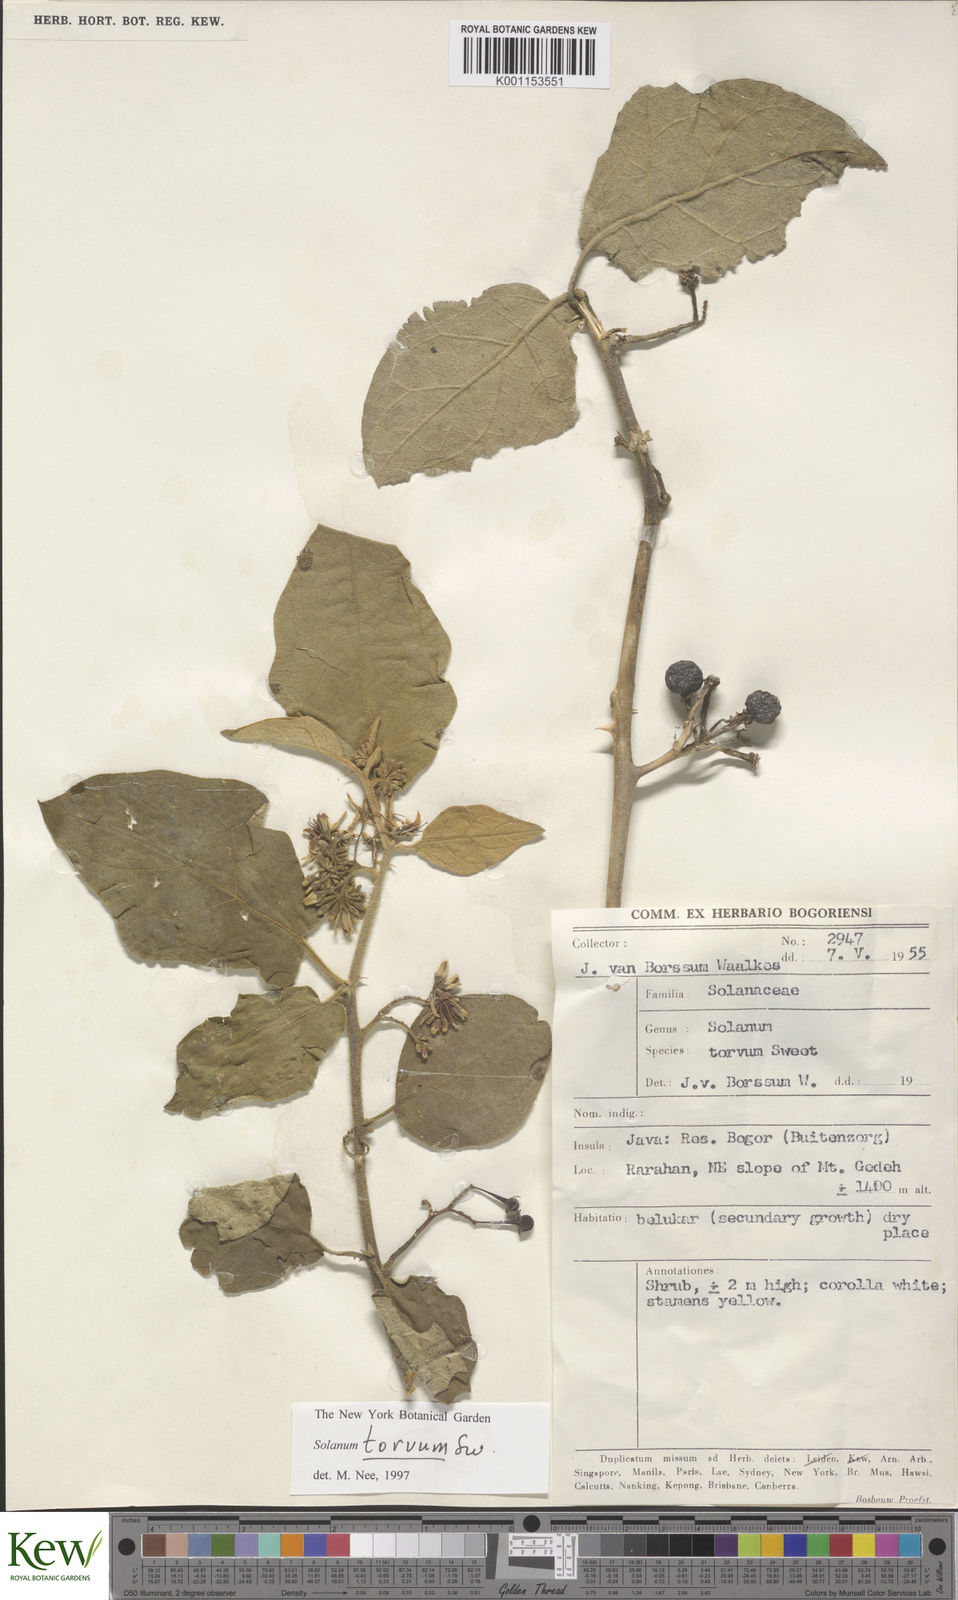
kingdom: Plantae
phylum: Tracheophyta
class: Magnoliopsida
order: Solanales
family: Solanaceae
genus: Solanum
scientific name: Solanum torvum
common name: Turkey berry
